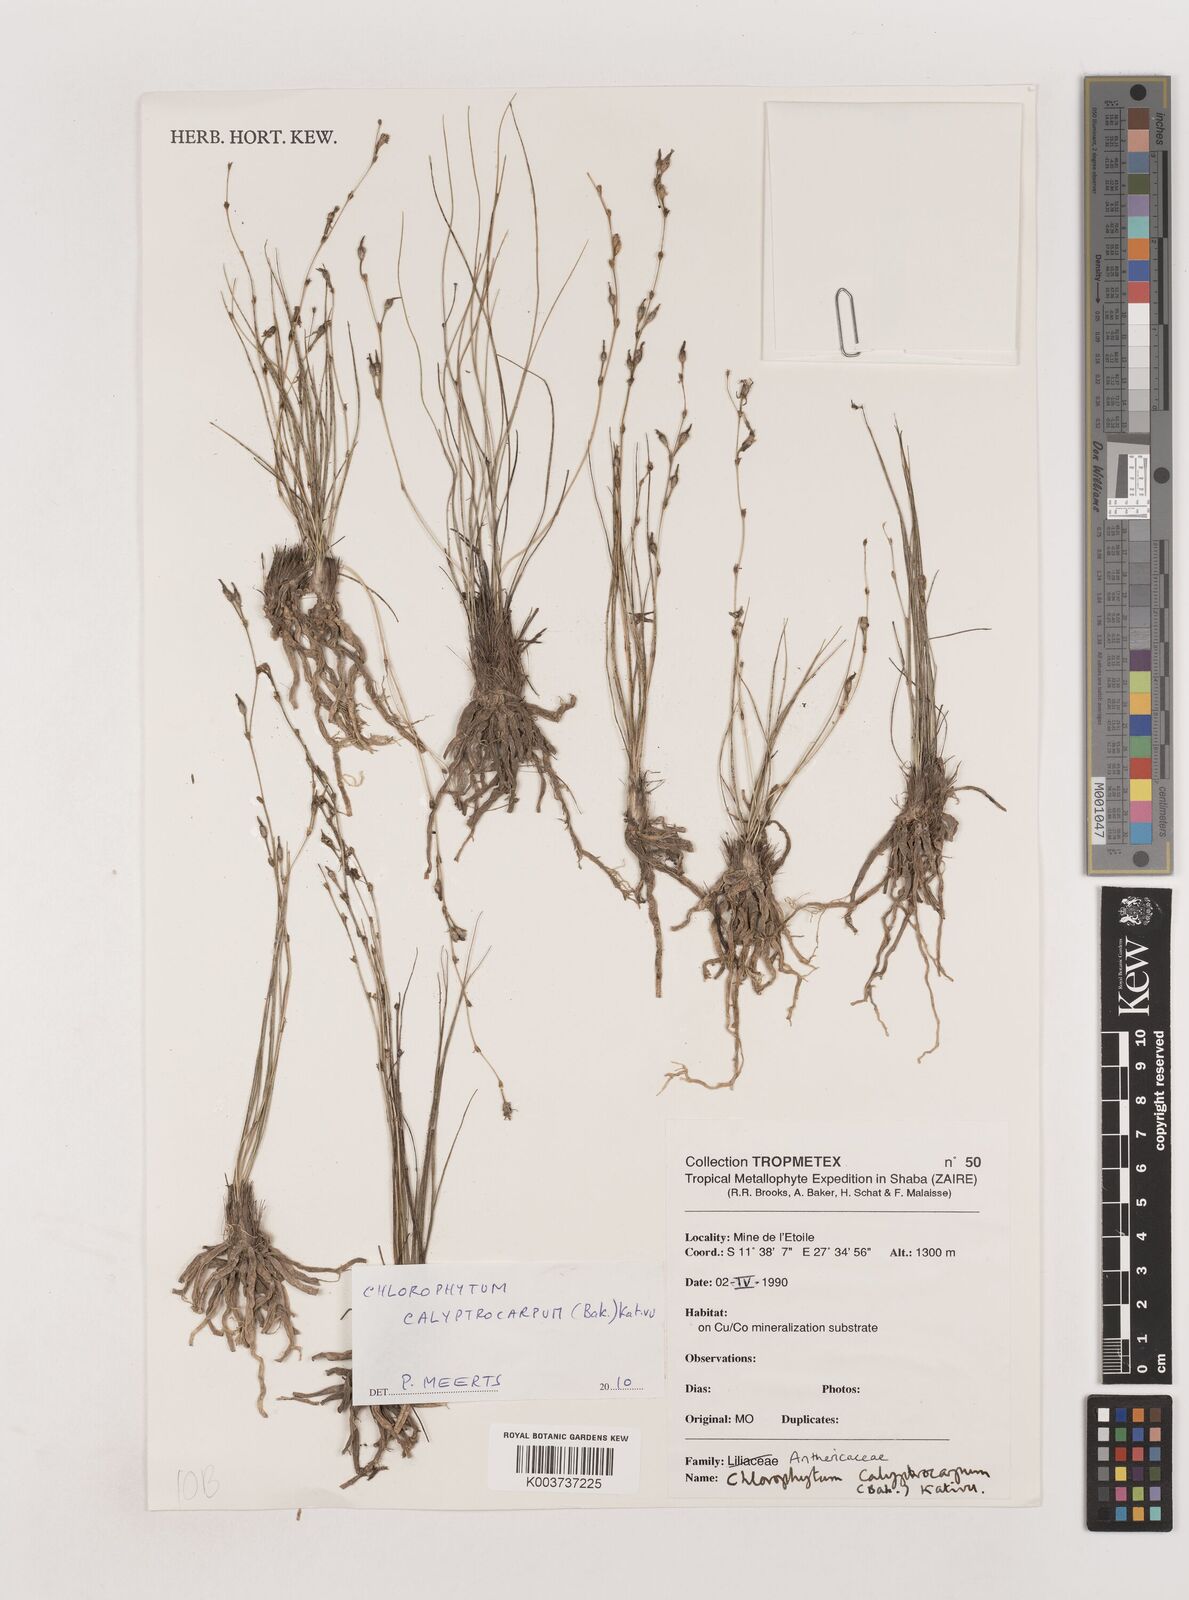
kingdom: Plantae
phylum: Tracheophyta
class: Liliopsida
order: Asparagales
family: Asparagaceae
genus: Chlorophytum
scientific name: Chlorophytum calyptrocarpum
